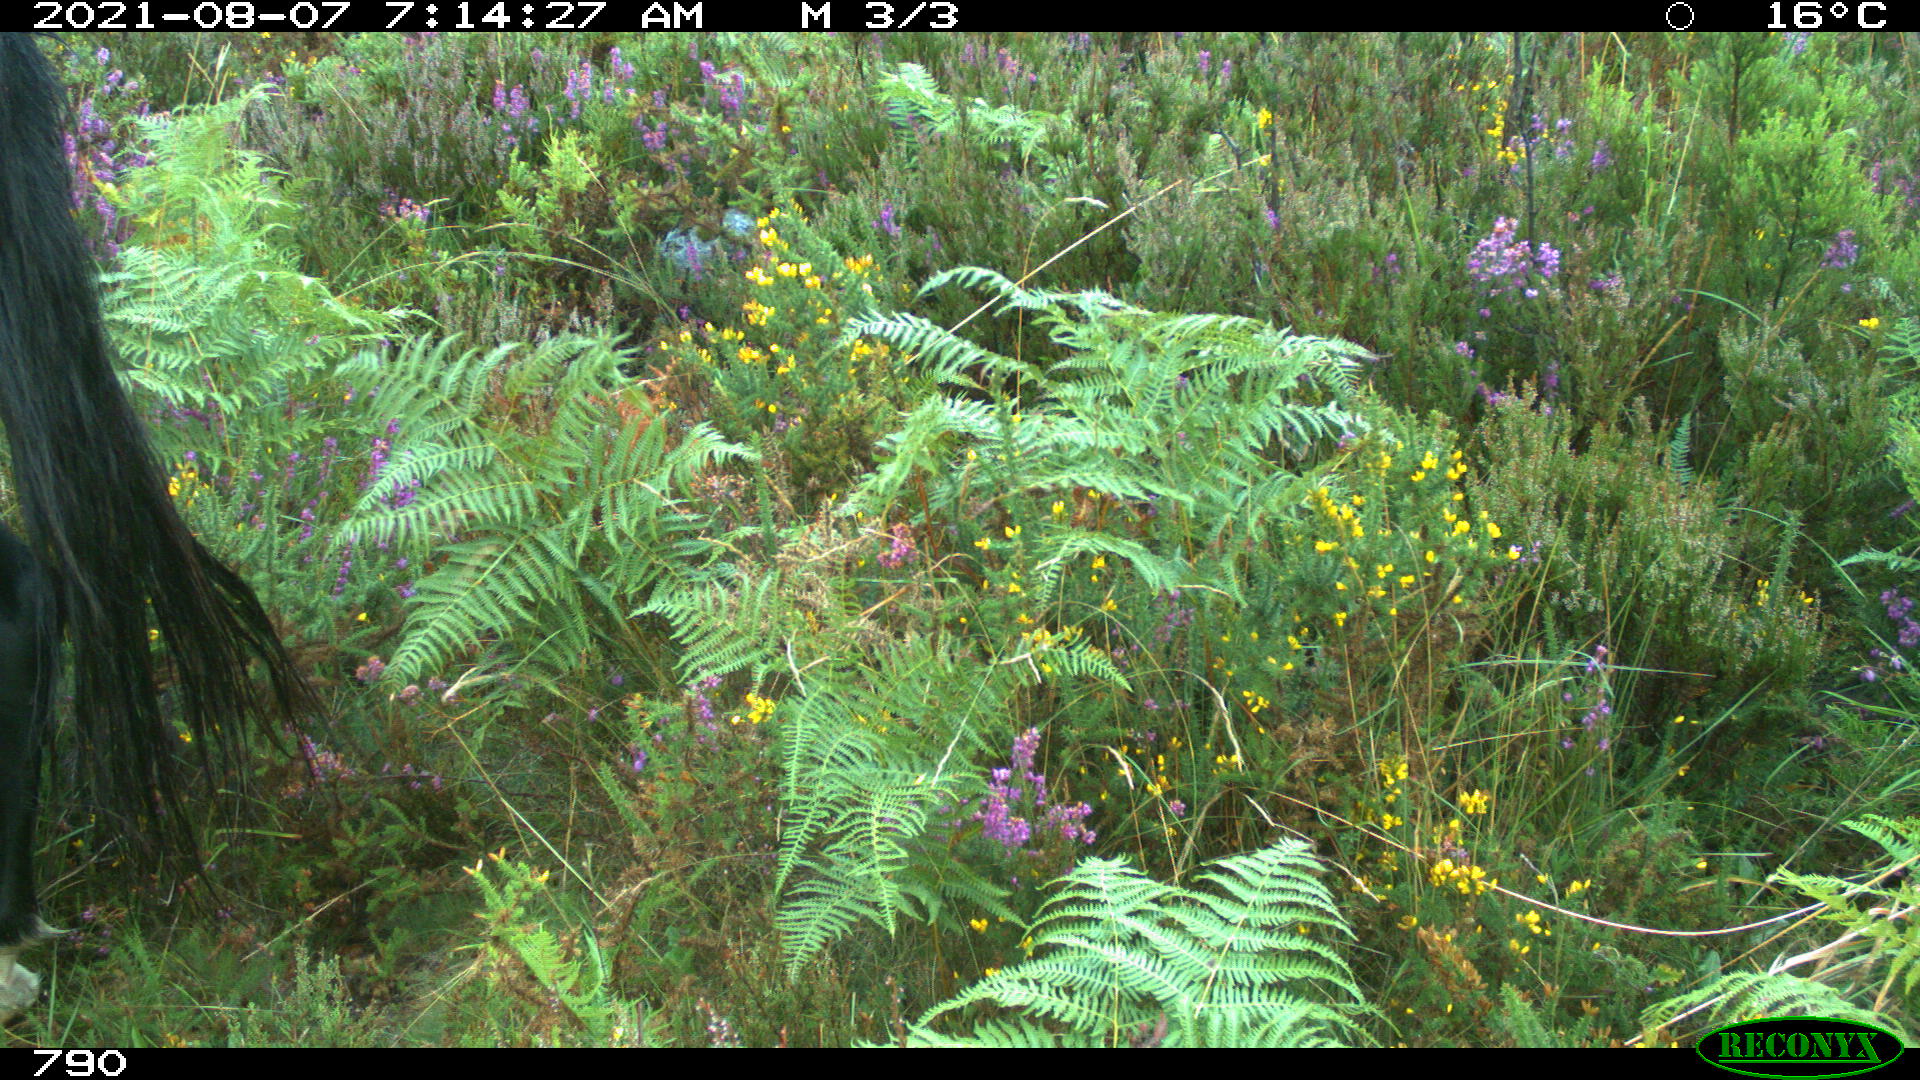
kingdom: Animalia
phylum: Chordata
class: Mammalia
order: Perissodactyla
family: Equidae
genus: Equus
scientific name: Equus caballus
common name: Horse
